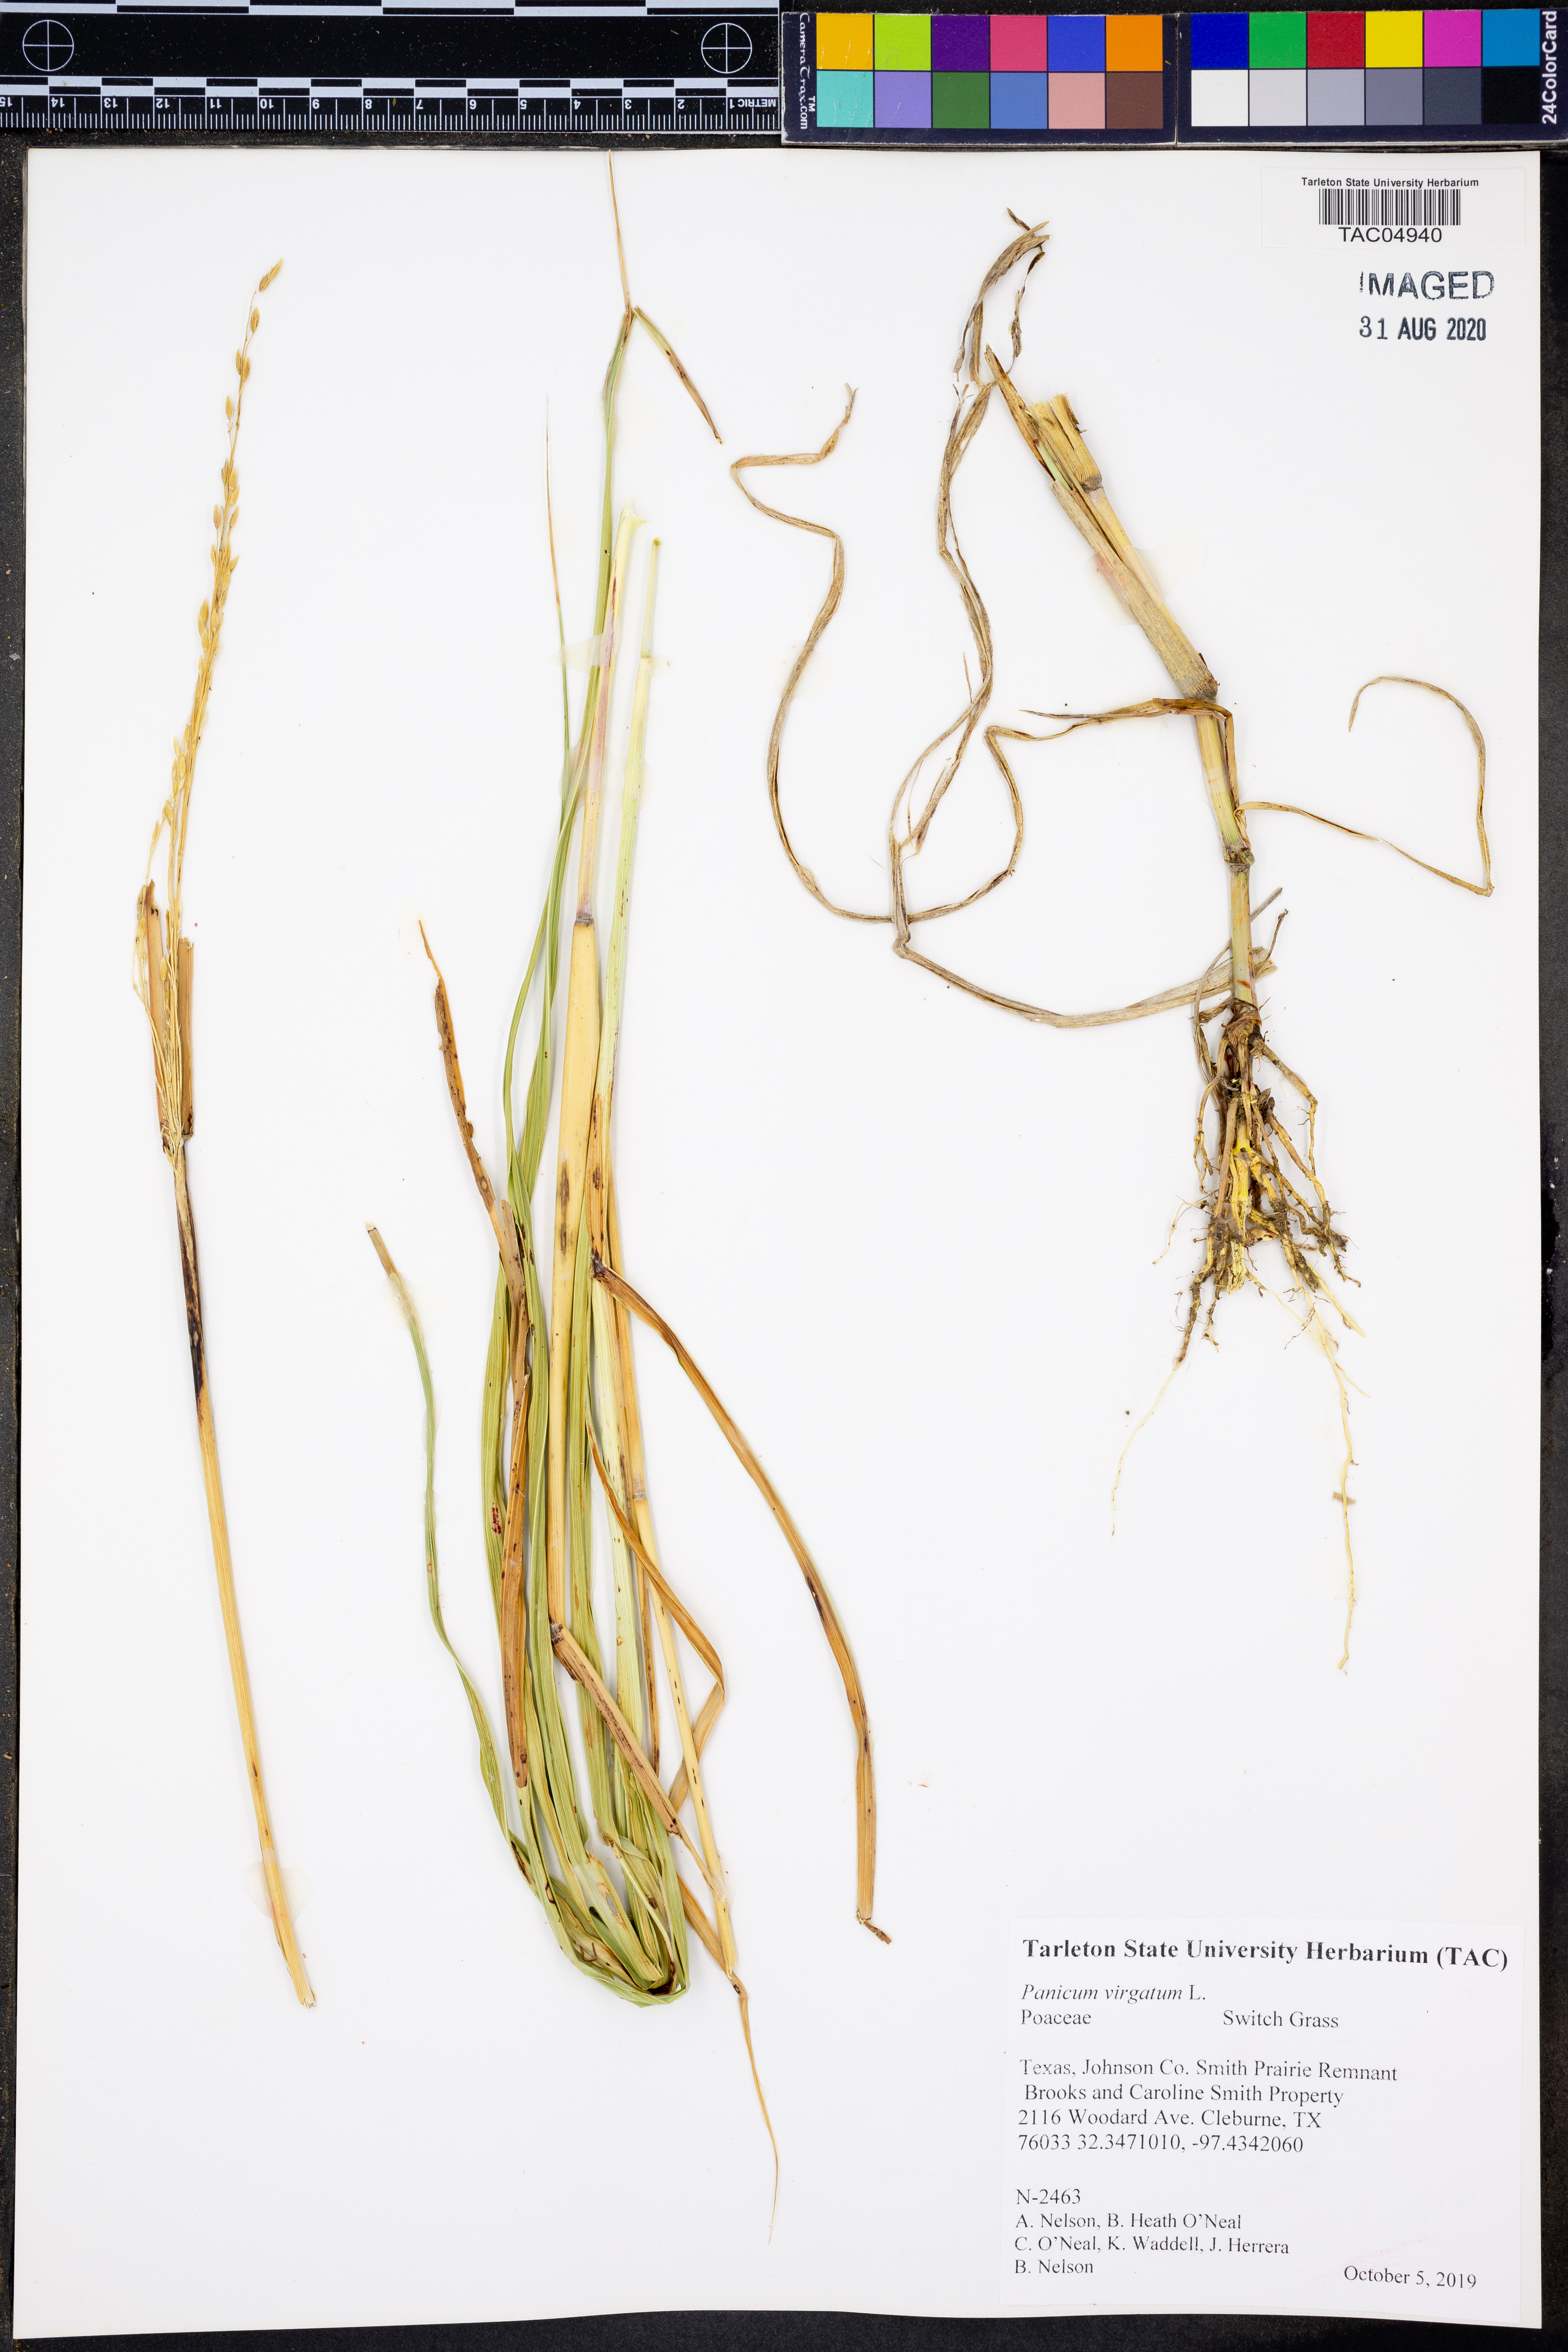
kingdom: Plantae
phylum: Tracheophyta
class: Liliopsida
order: Poales
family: Poaceae
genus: Panicum
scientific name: Panicum virgatum
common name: Switchgrass
